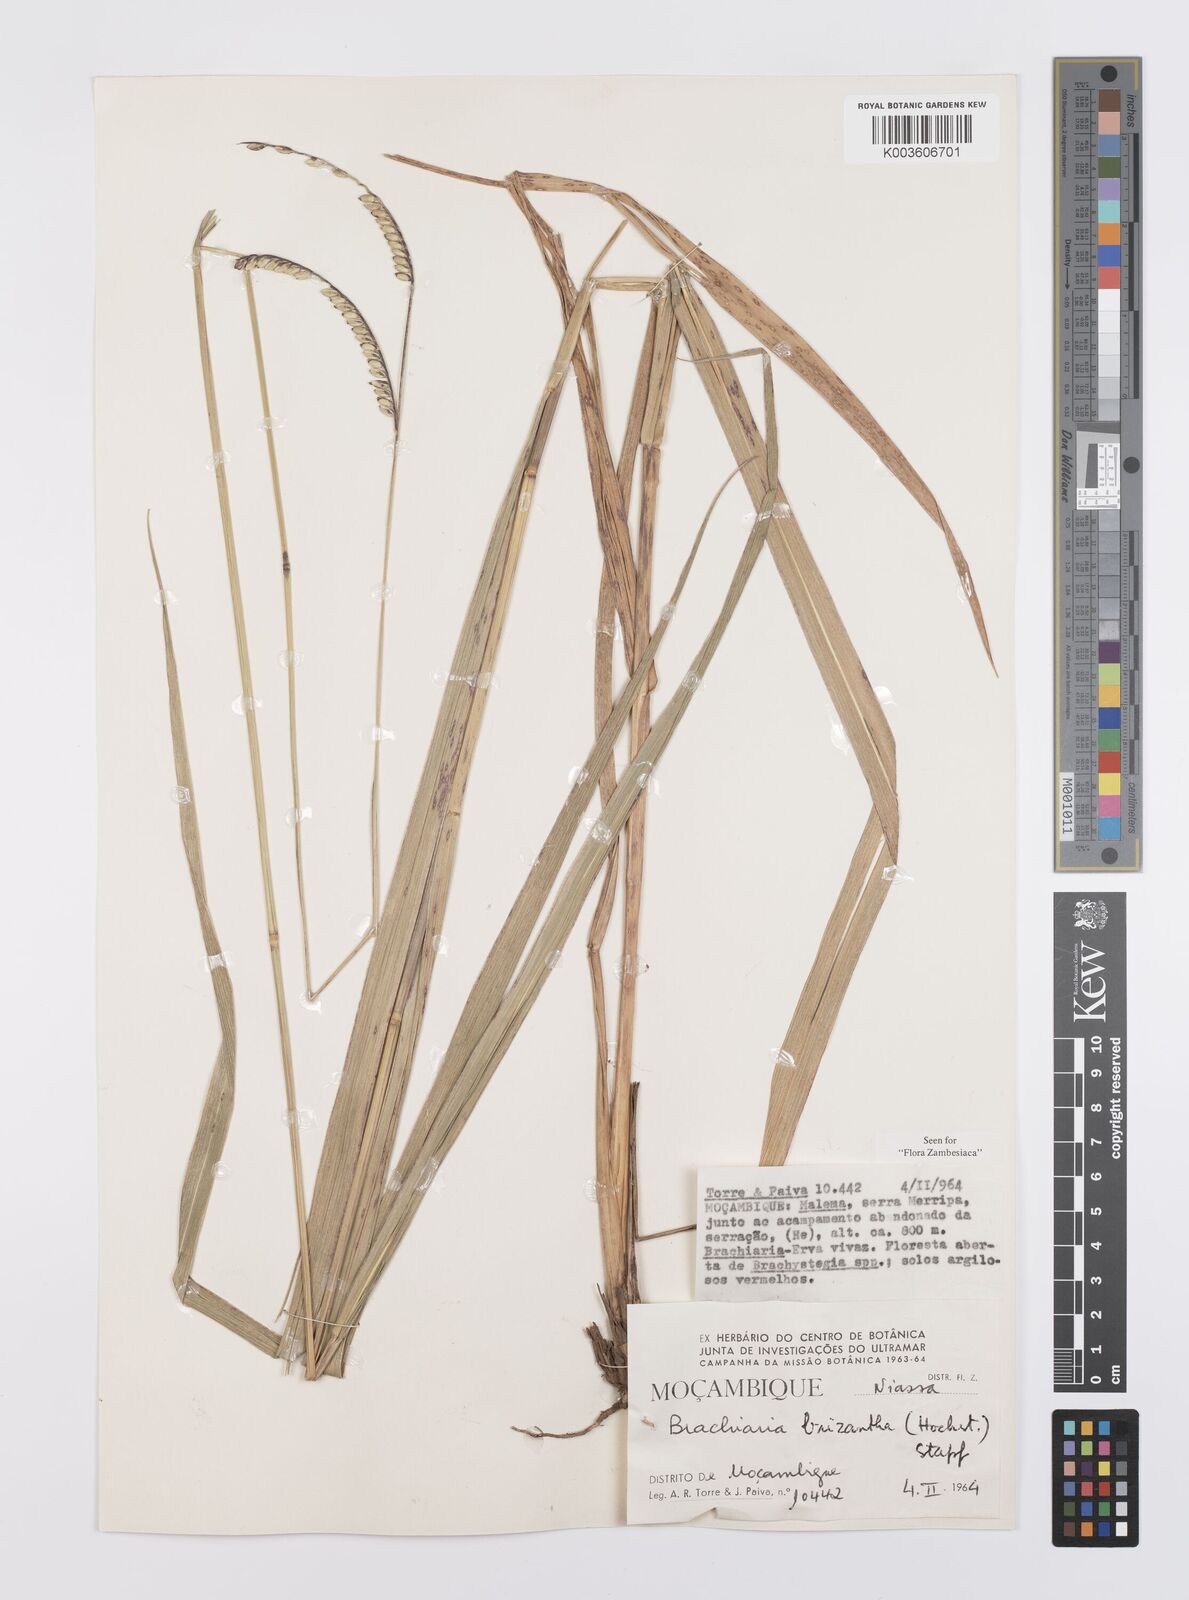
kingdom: Plantae
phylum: Tracheophyta
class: Liliopsida
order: Poales
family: Poaceae
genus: Urochloa
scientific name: Urochloa brizantha
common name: Palisade signalgrass
